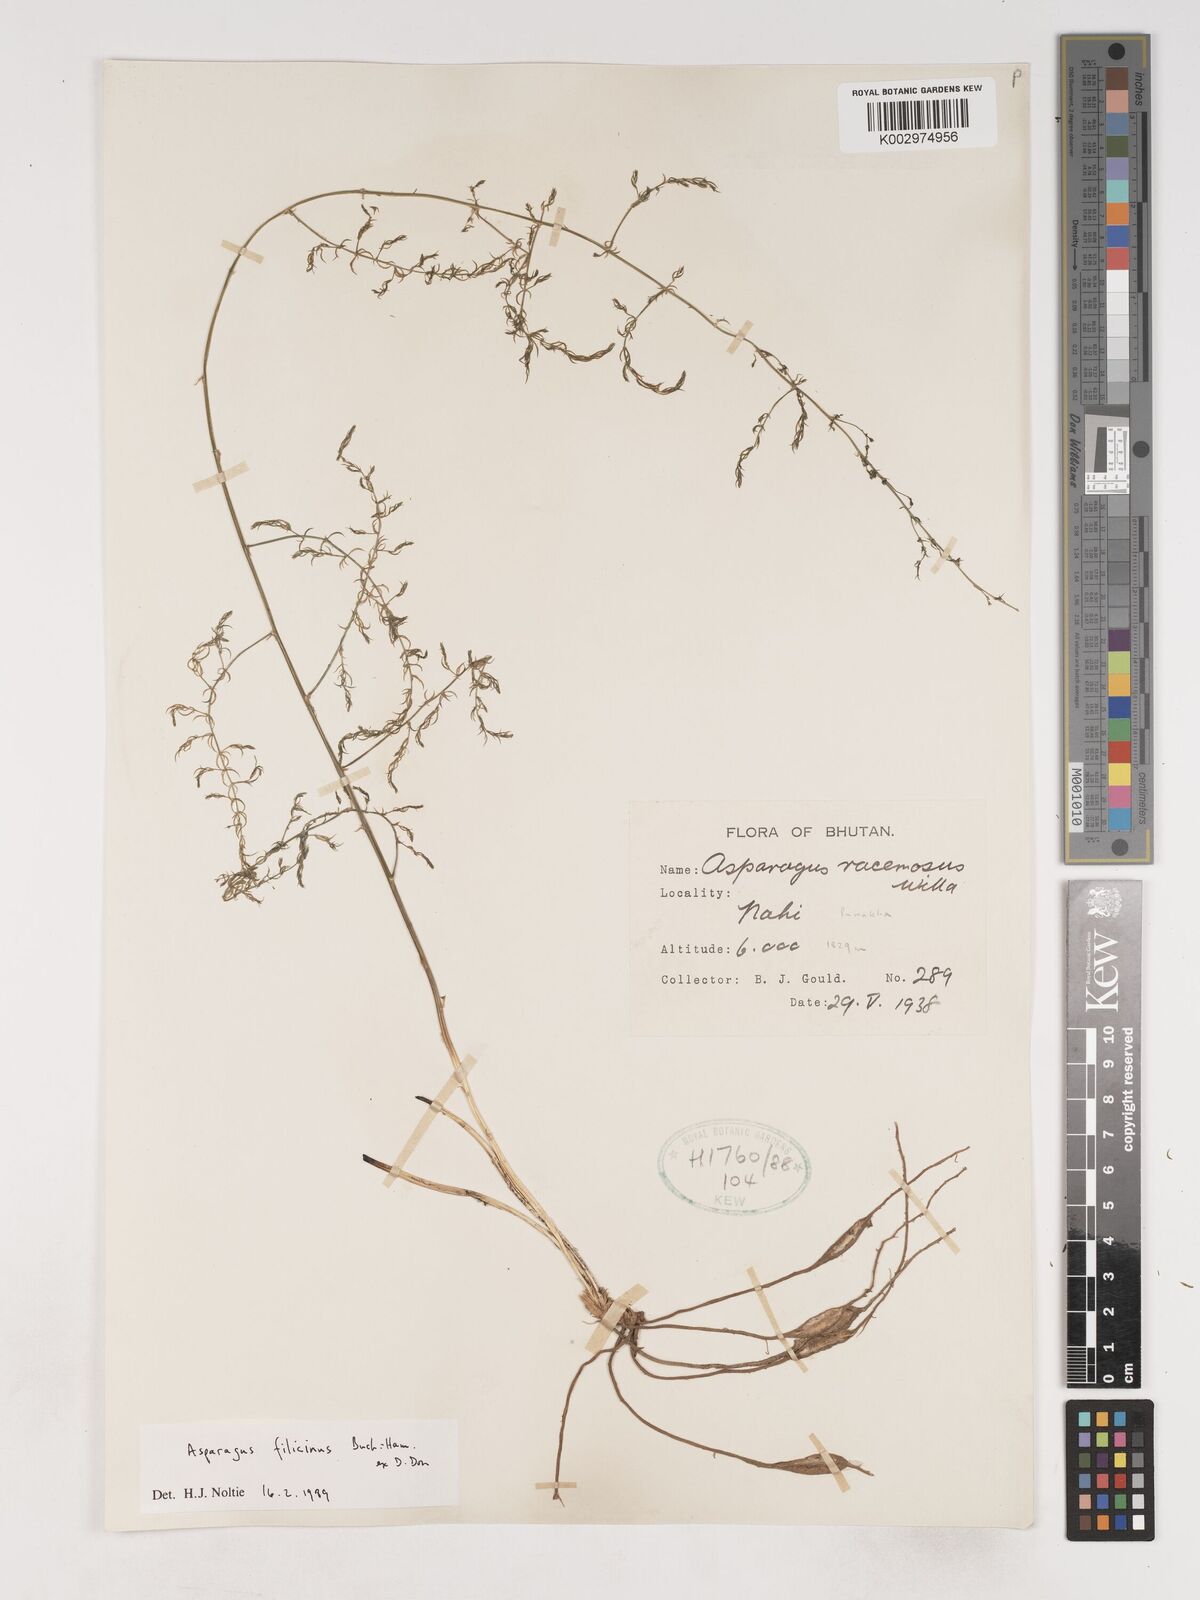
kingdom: Plantae
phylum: Tracheophyta
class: Liliopsida
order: Asparagales
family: Asparagaceae
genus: Asparagus
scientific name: Asparagus filicinus
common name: Fern asparagus
